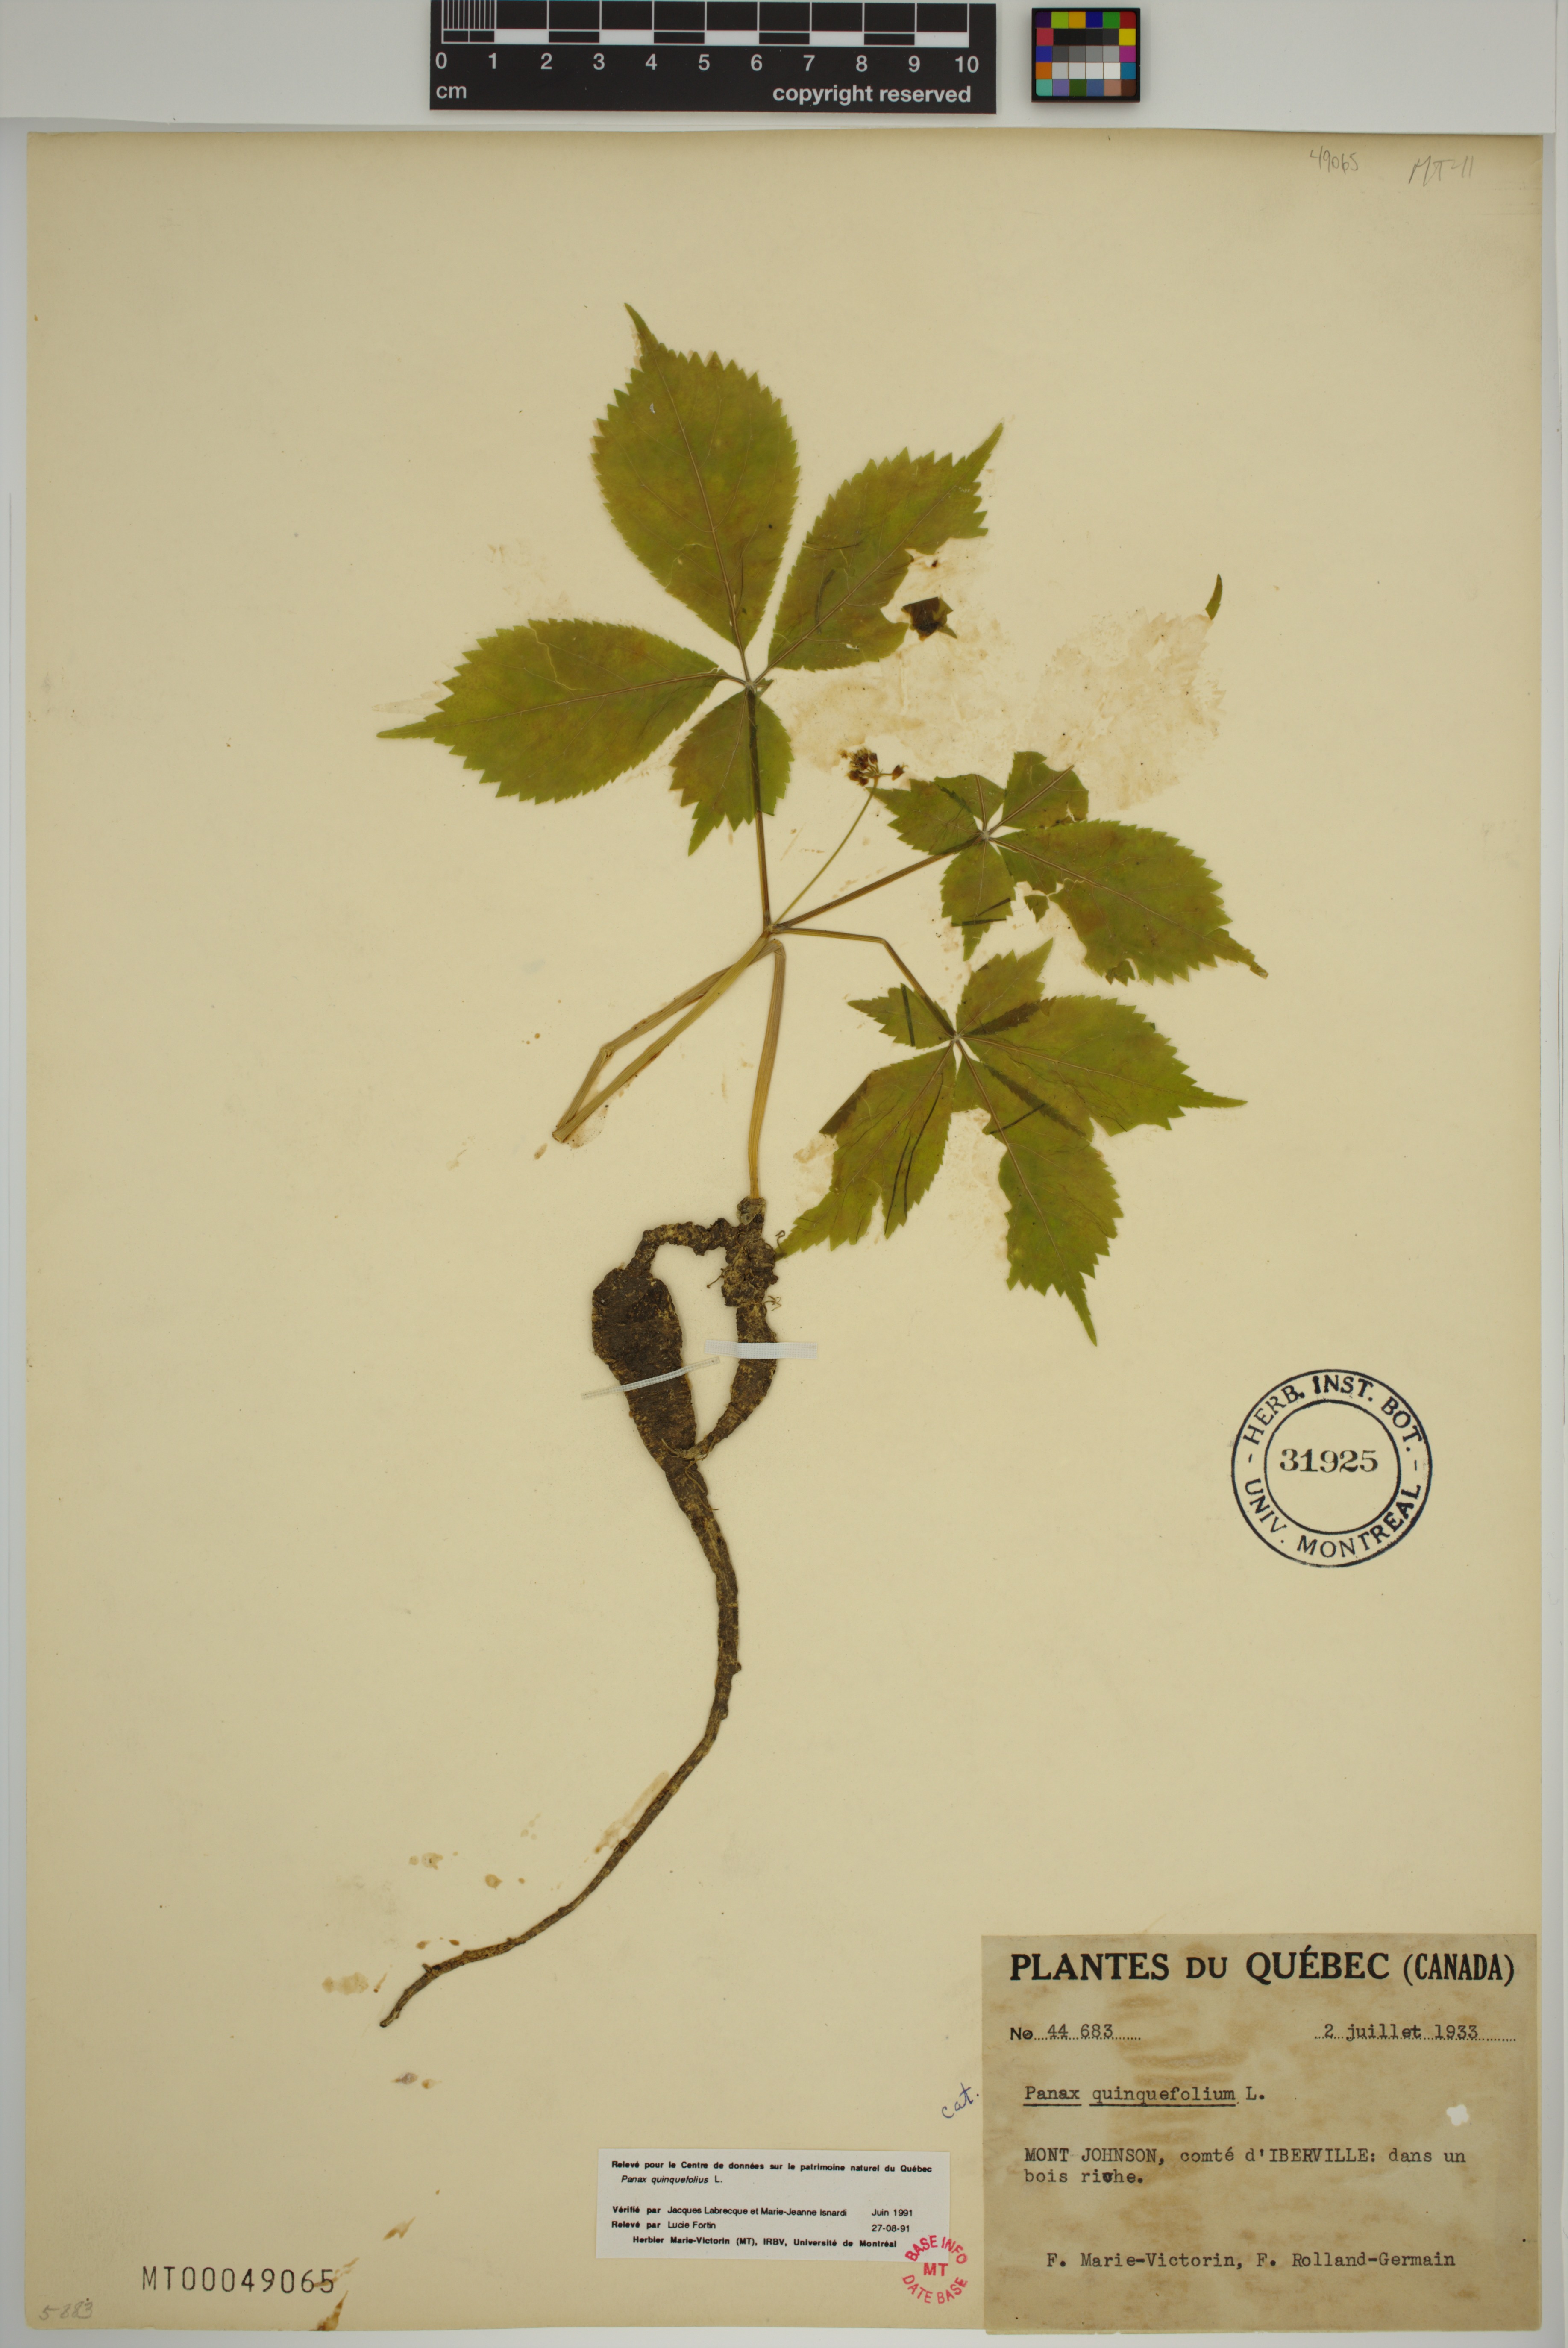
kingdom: Plantae
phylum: Tracheophyta
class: Magnoliopsida
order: Apiales
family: Araliaceae
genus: Panax
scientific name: Panax quinquefolius
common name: American ginseng
